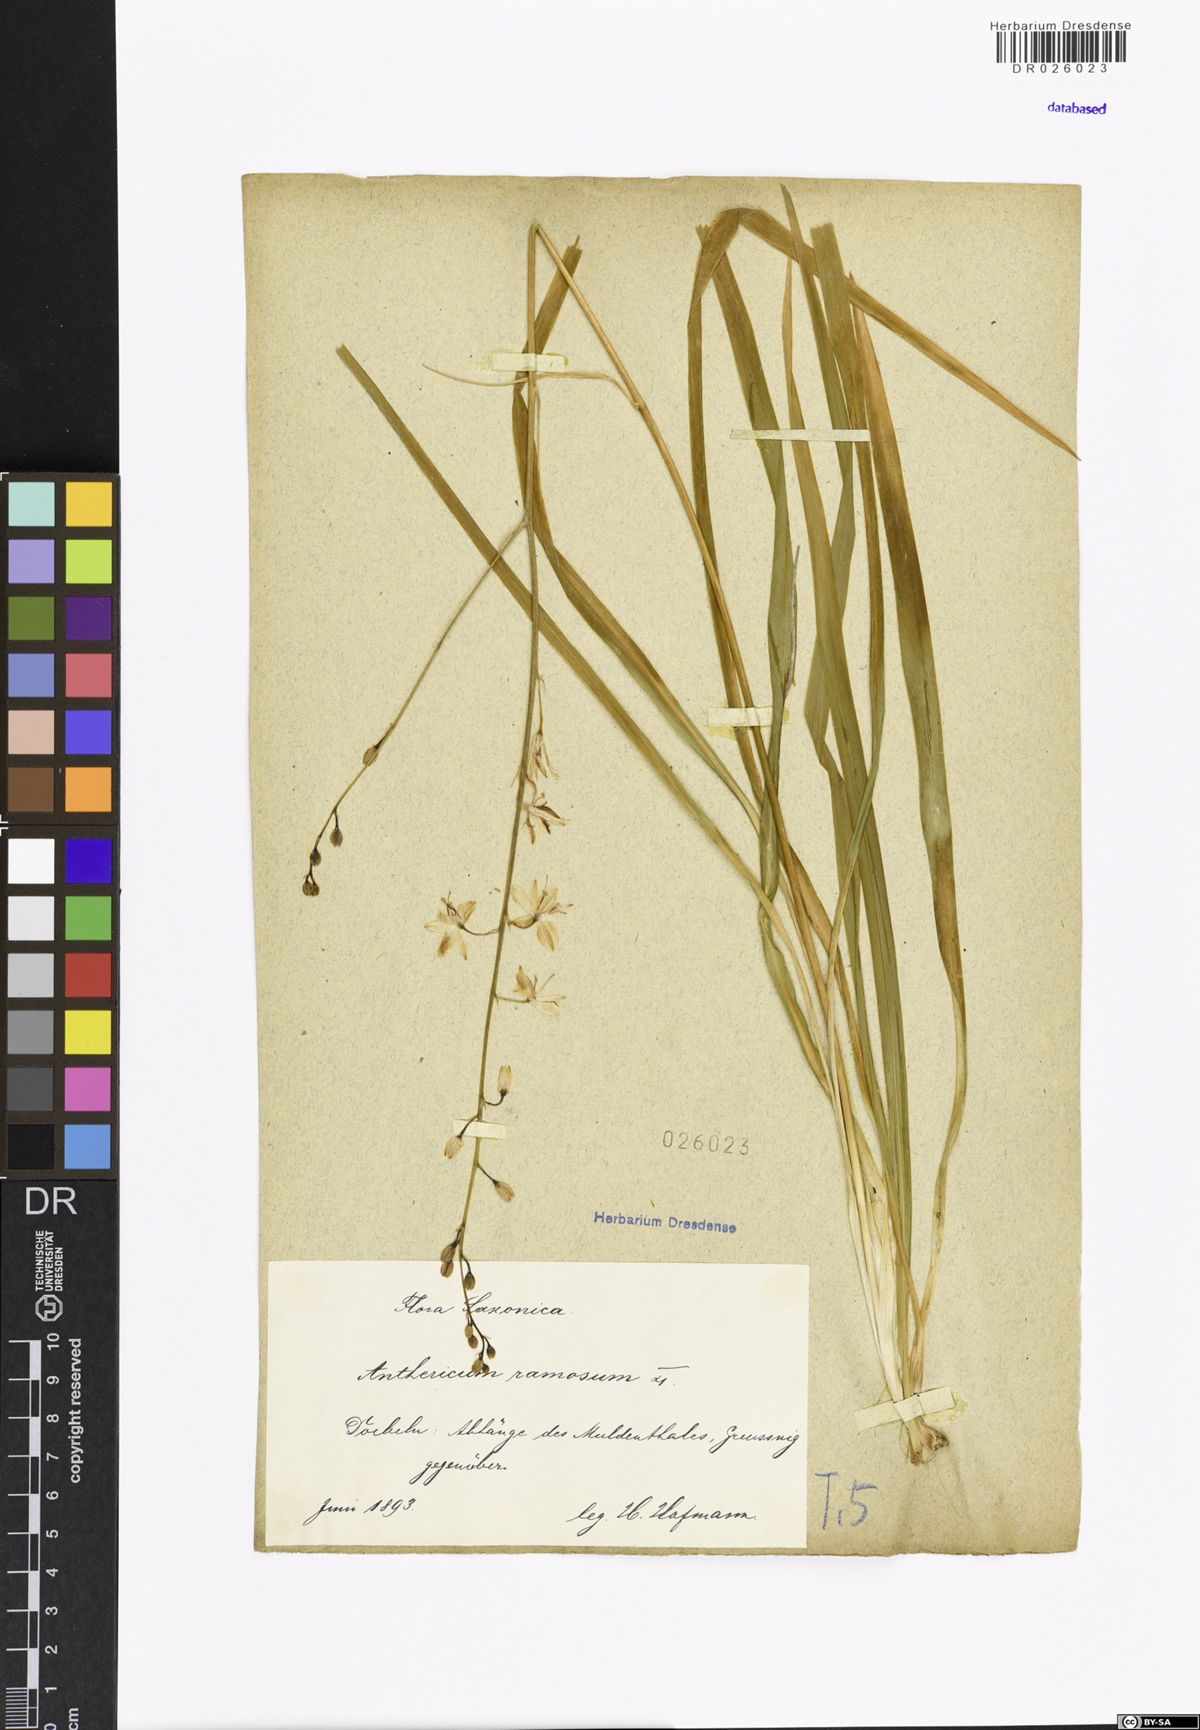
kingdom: Plantae
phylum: Tracheophyta
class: Liliopsida
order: Asparagales
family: Asparagaceae
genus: Anthericum
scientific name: Anthericum ramosum
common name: Branched st. bernard's-lily
